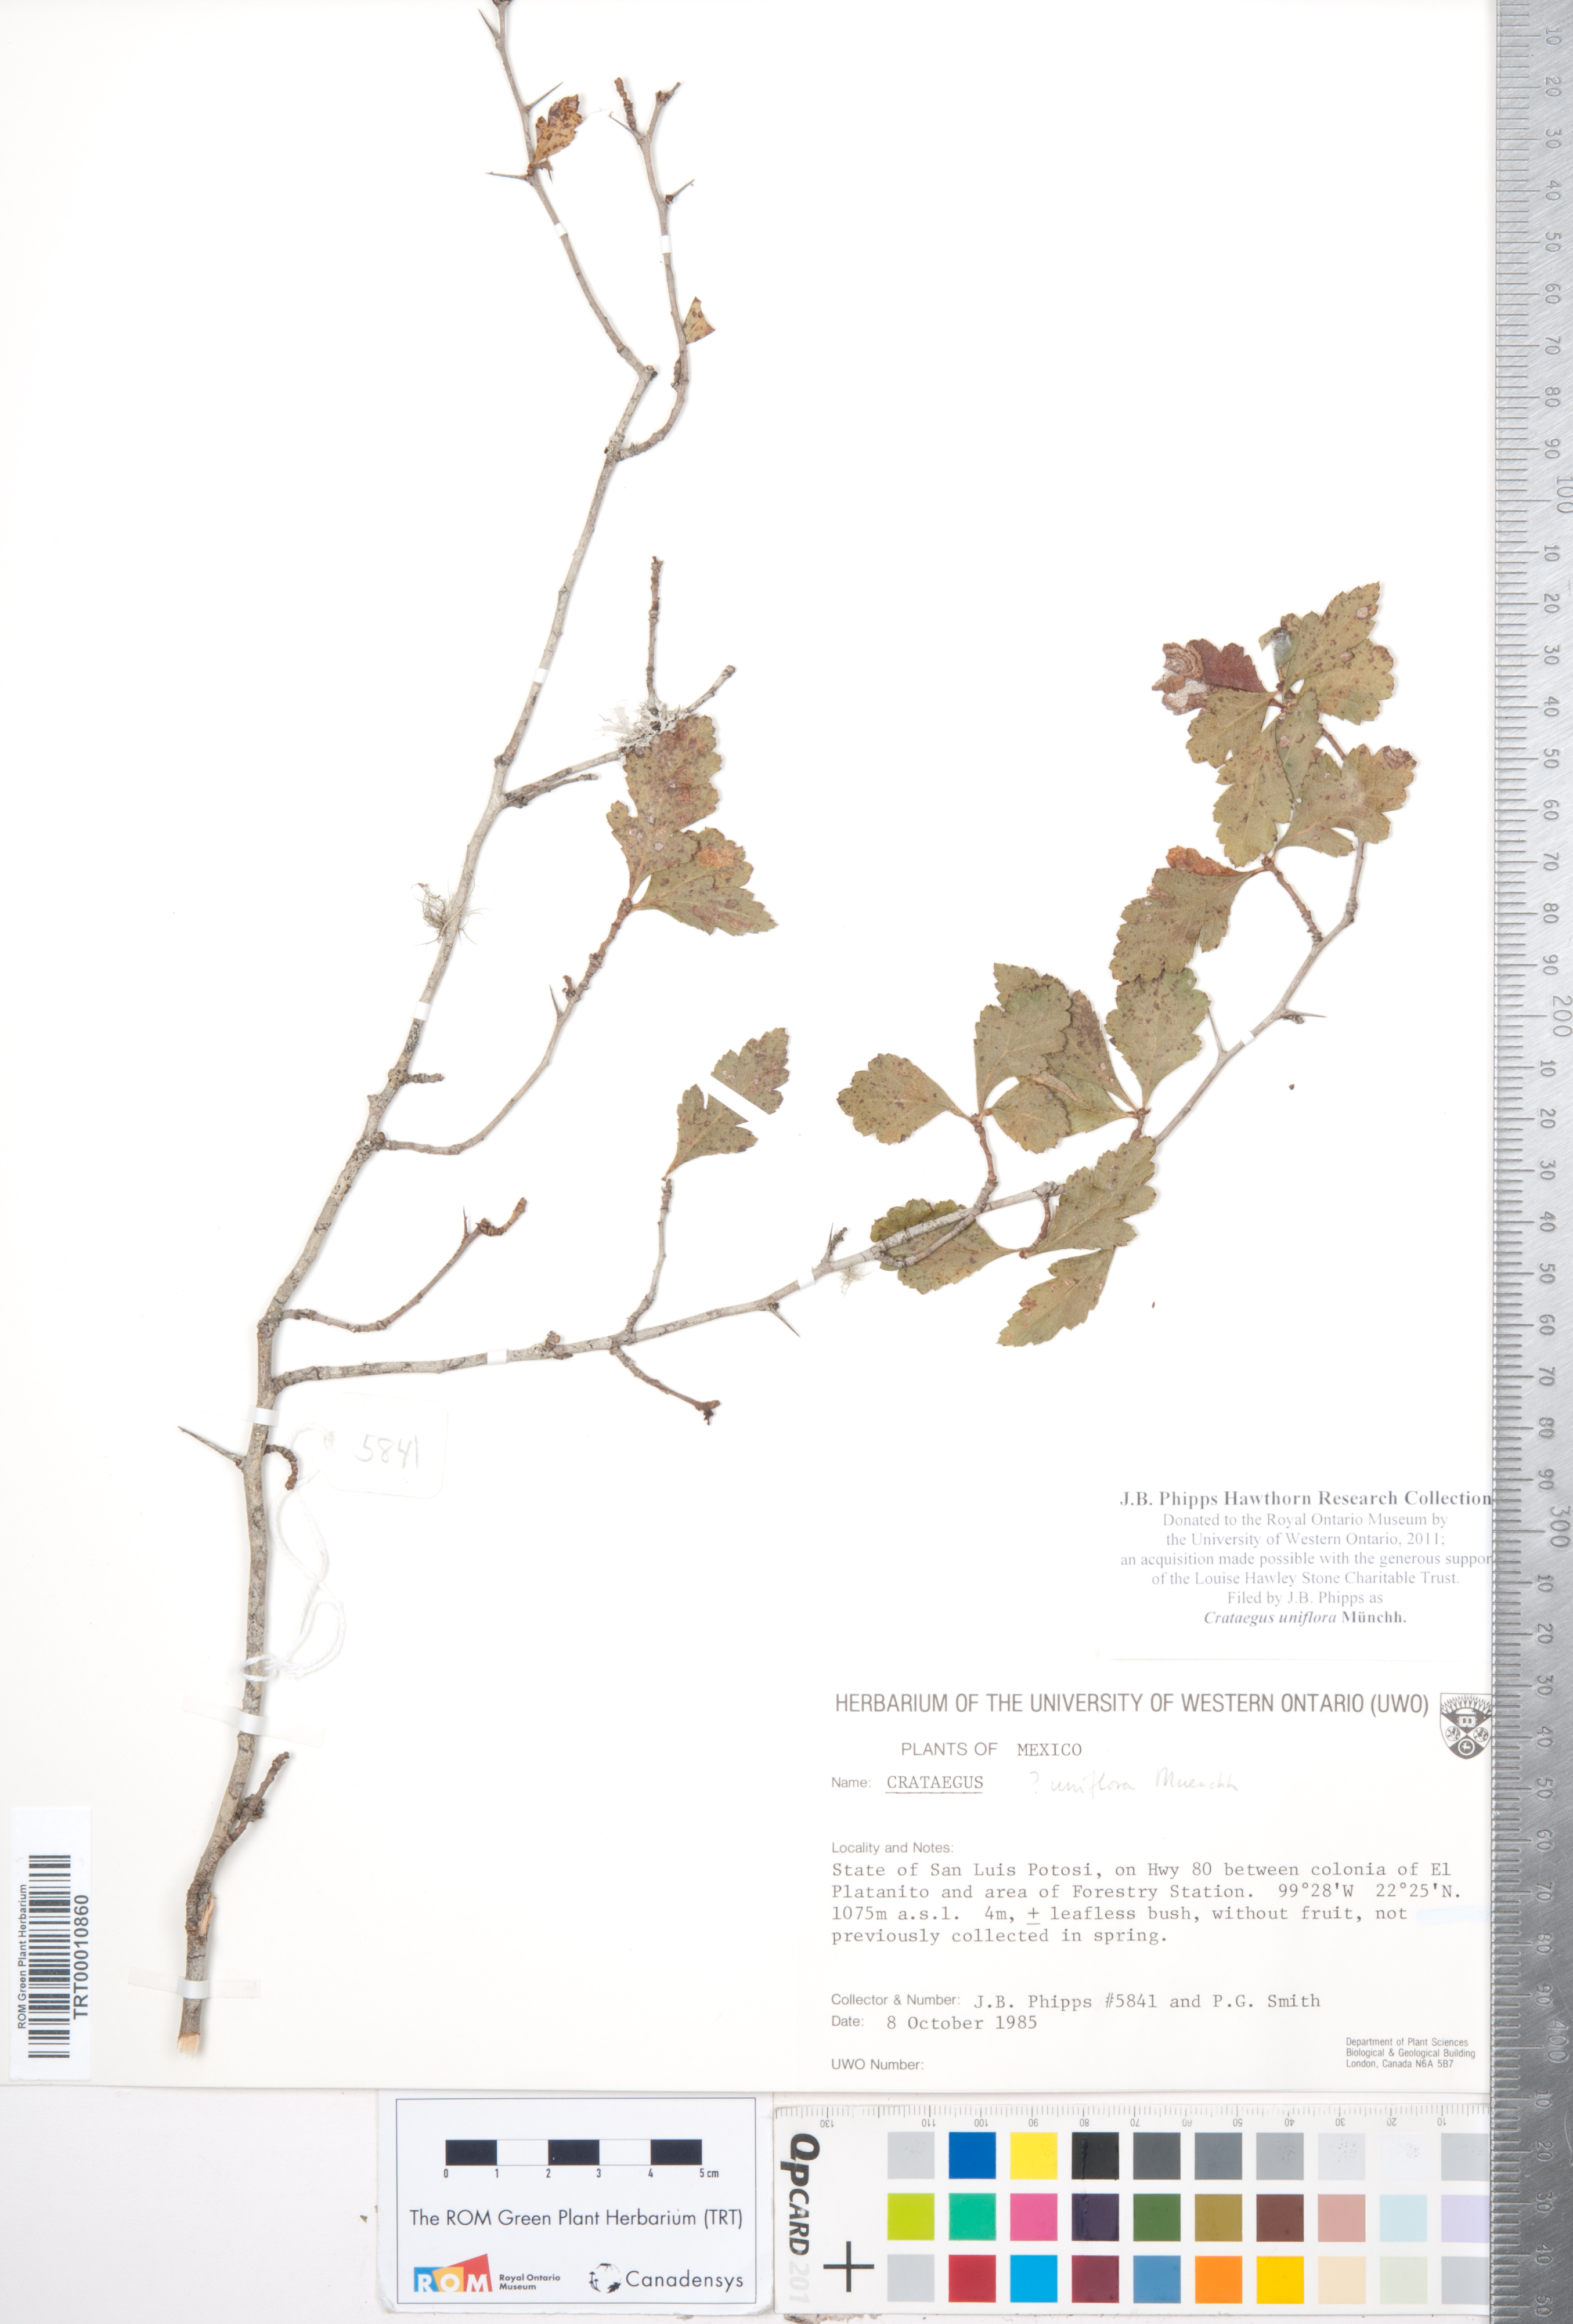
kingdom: Plantae
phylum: Tracheophyta
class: Magnoliopsida
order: Rosales
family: Rosaceae
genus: Crataegus
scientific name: Crataegus uniflora
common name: One-flower hawthorn
